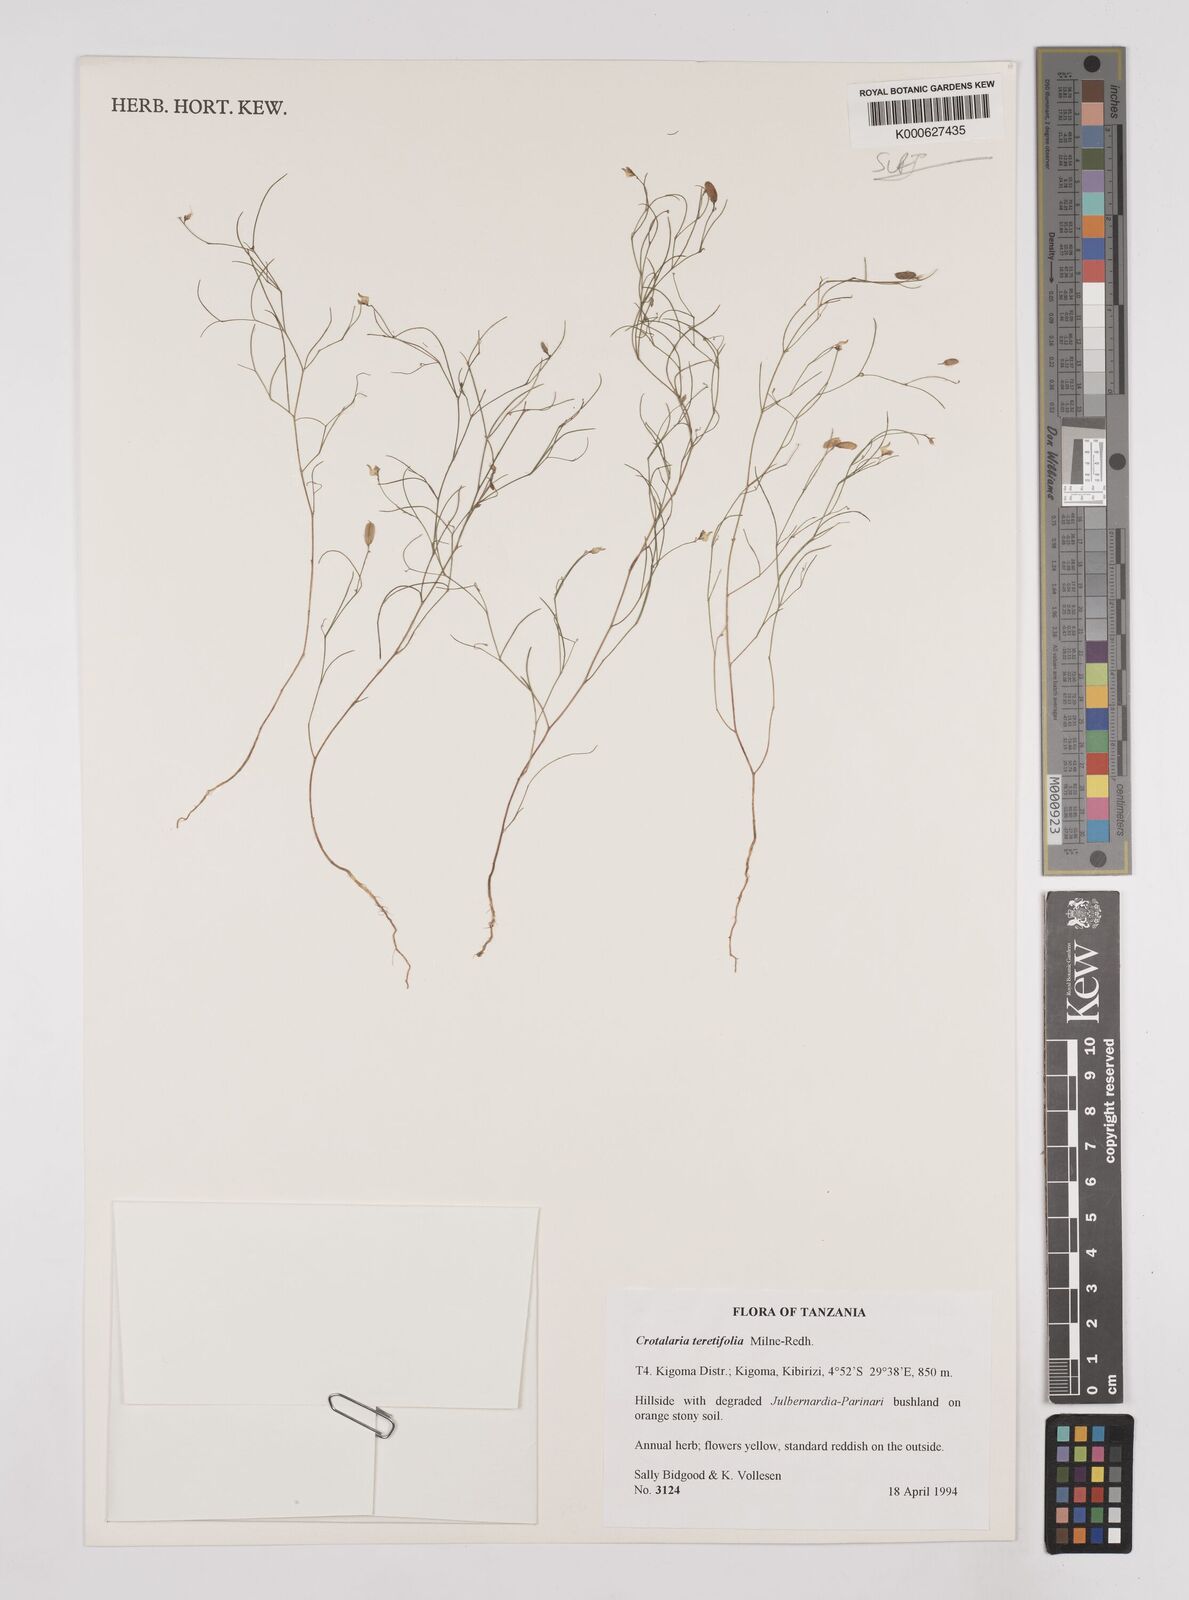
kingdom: Plantae
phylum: Tracheophyta
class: Magnoliopsida
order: Fabales
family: Fabaceae
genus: Crotalaria
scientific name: Crotalaria teretifolia
